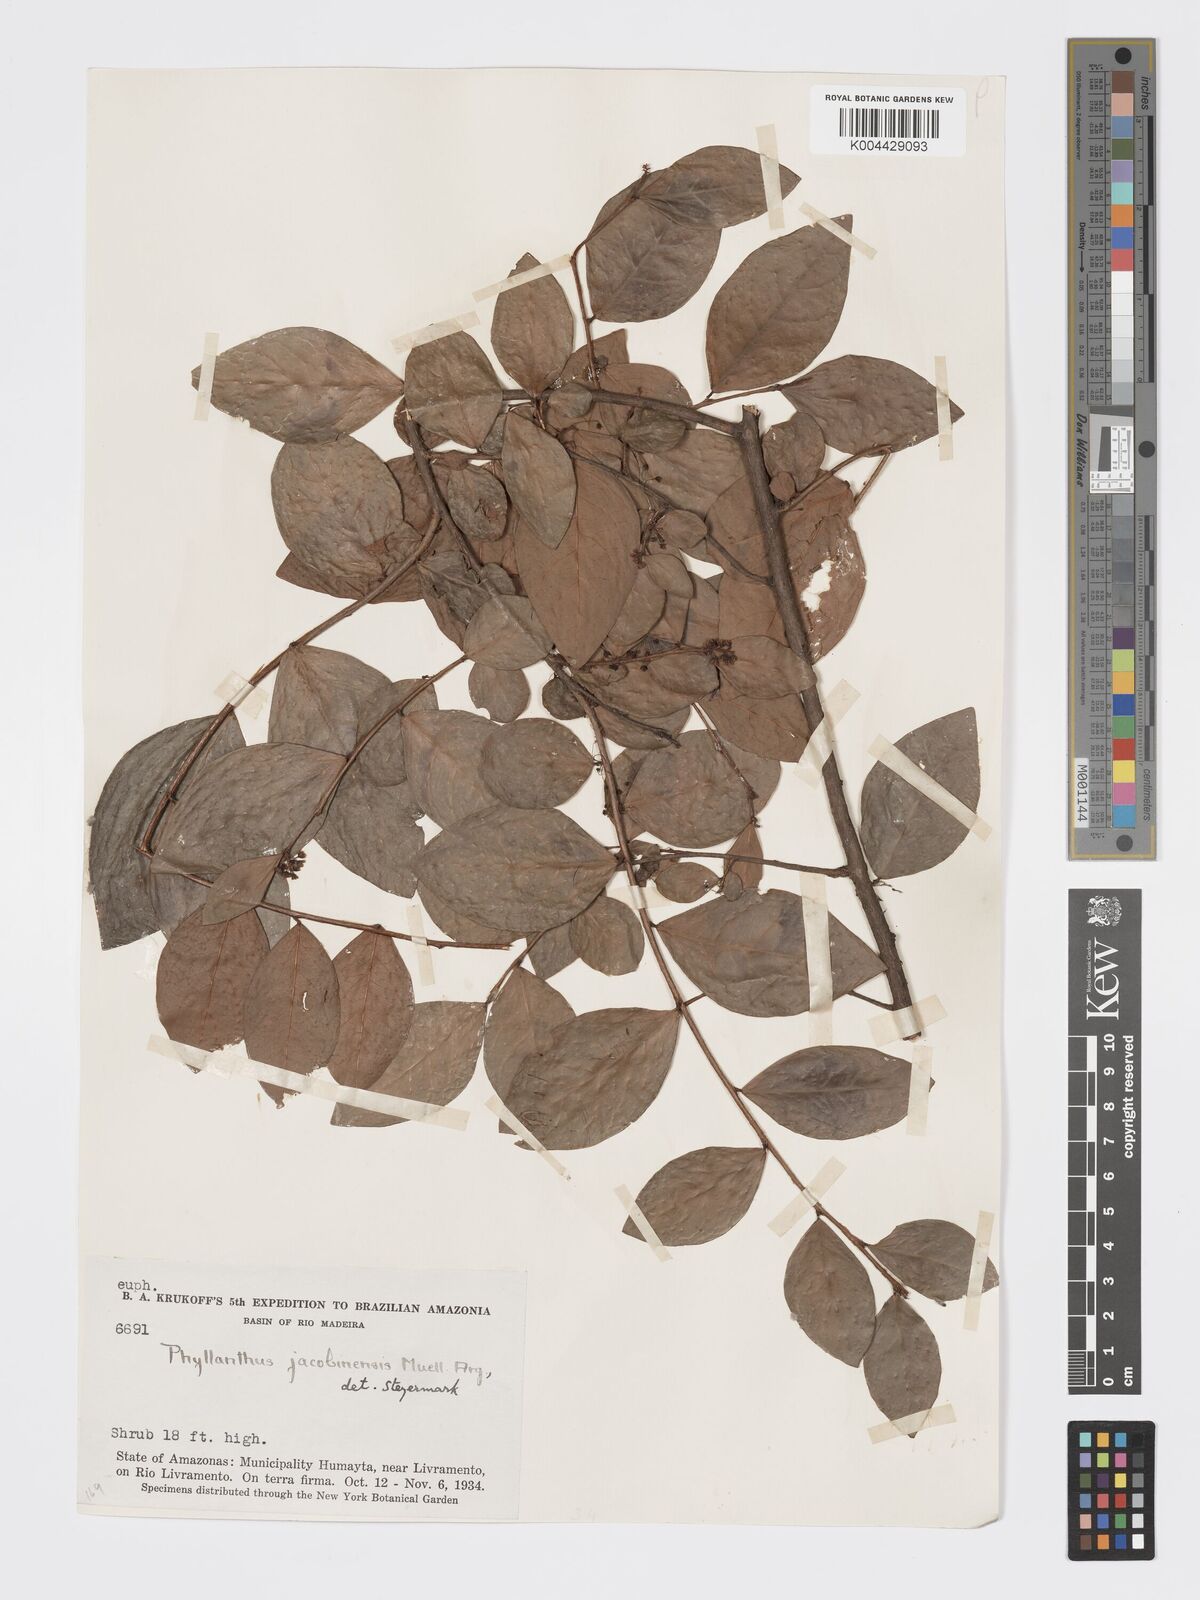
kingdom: Plantae
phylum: Tracheophyta
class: Magnoliopsida
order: Malpighiales
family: Phyllanthaceae
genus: Astrocasia
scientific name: Astrocasia jacobinensis
